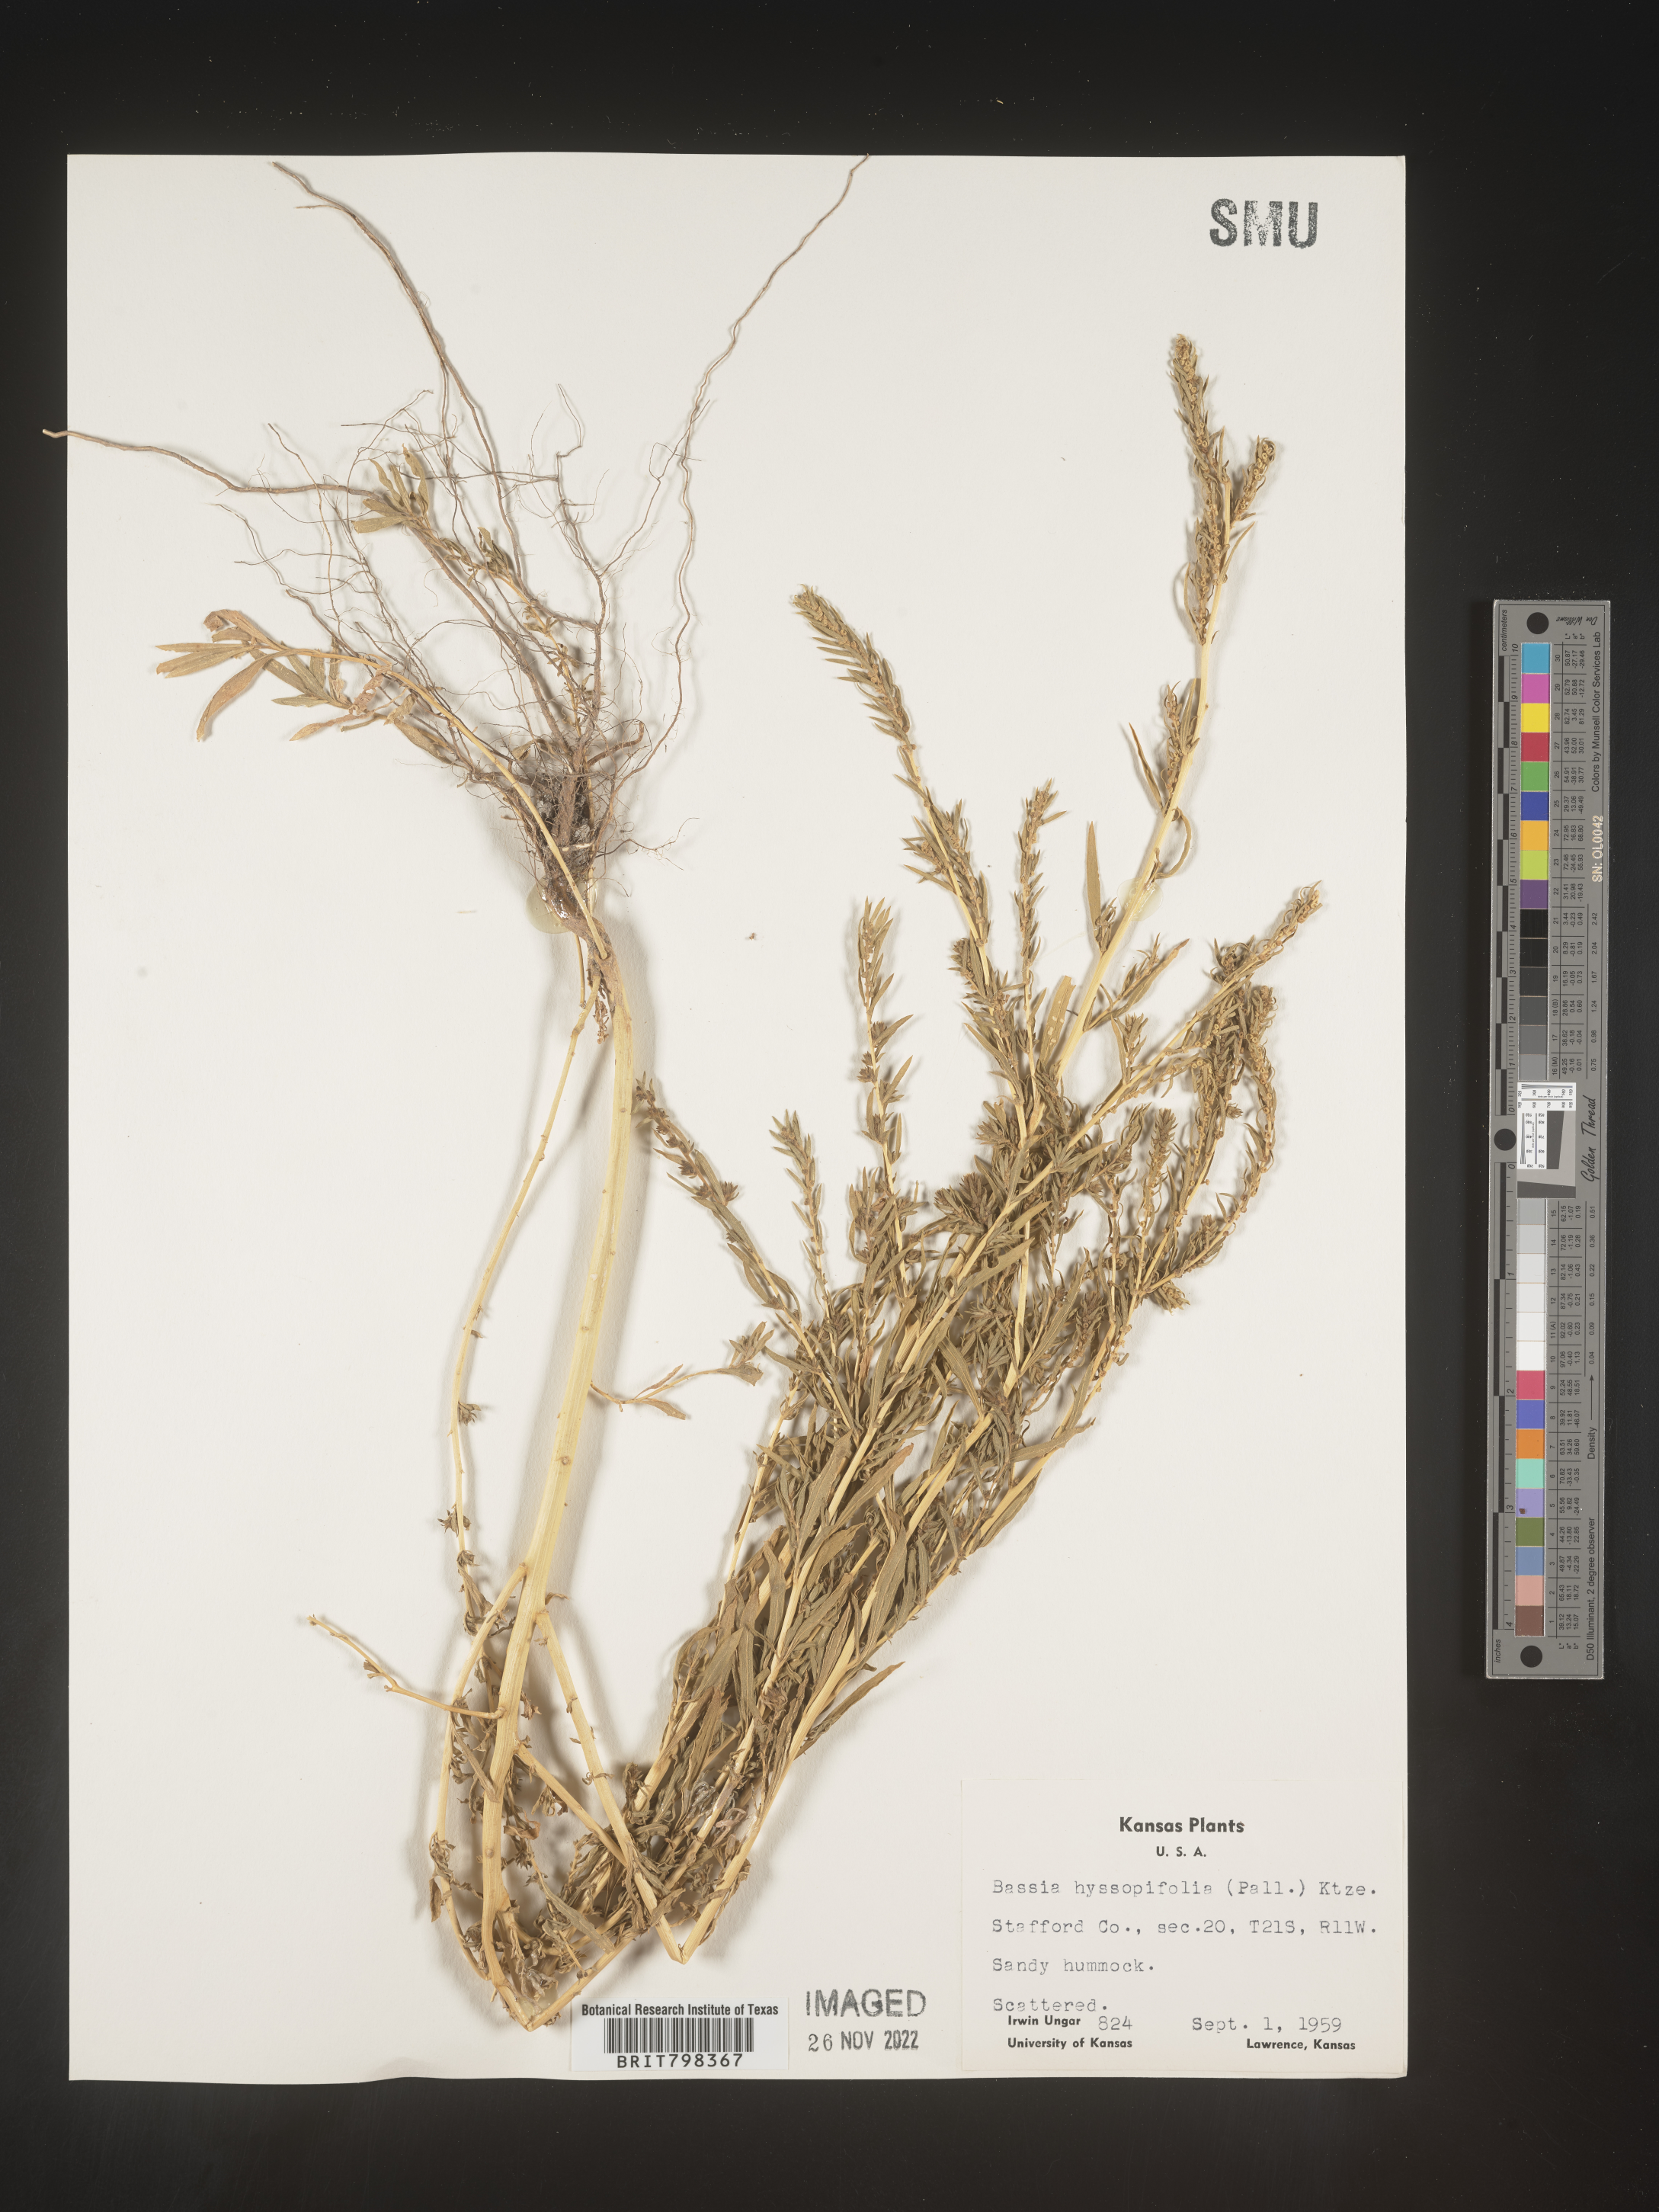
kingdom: Plantae
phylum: Tracheophyta
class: Magnoliopsida
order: Caryophyllales
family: Amaranthaceae
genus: Bassia
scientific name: Bassia
